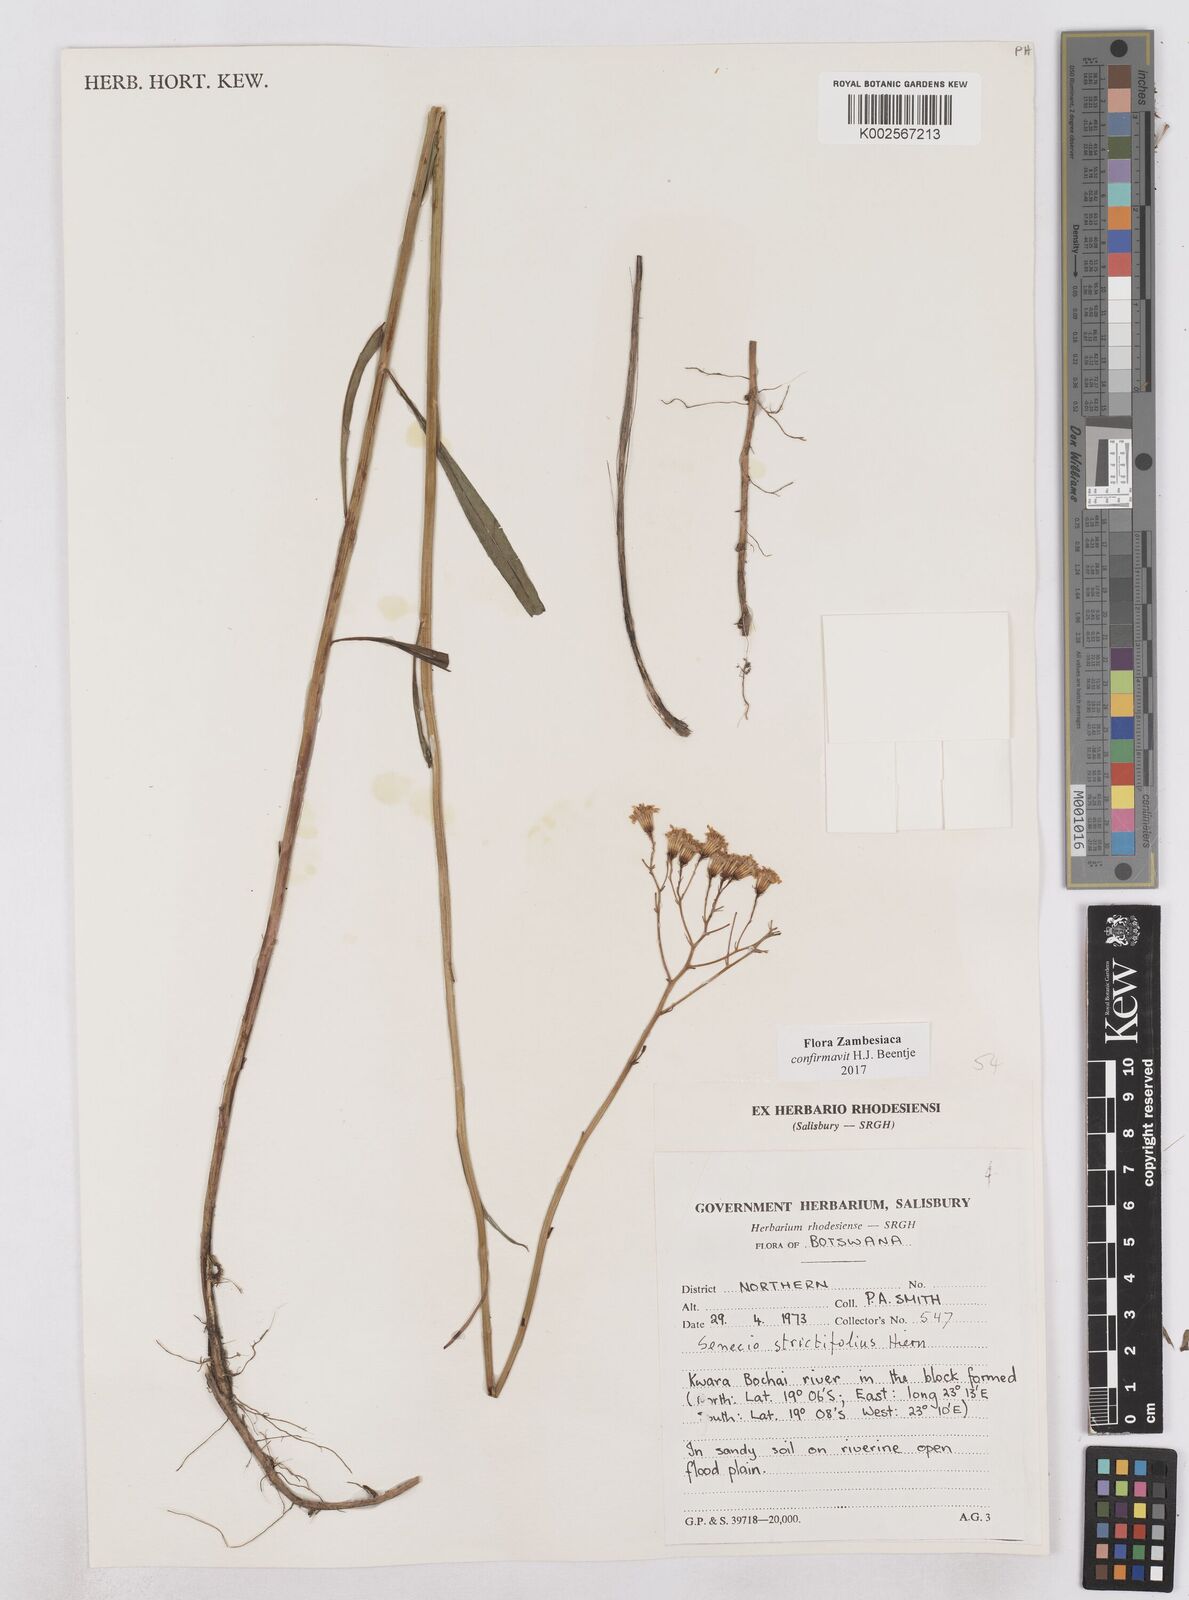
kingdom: Plantae
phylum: Tracheophyta
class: Magnoliopsida
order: Asterales
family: Asteraceae
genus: Senecio
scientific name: Senecio strictifolius
